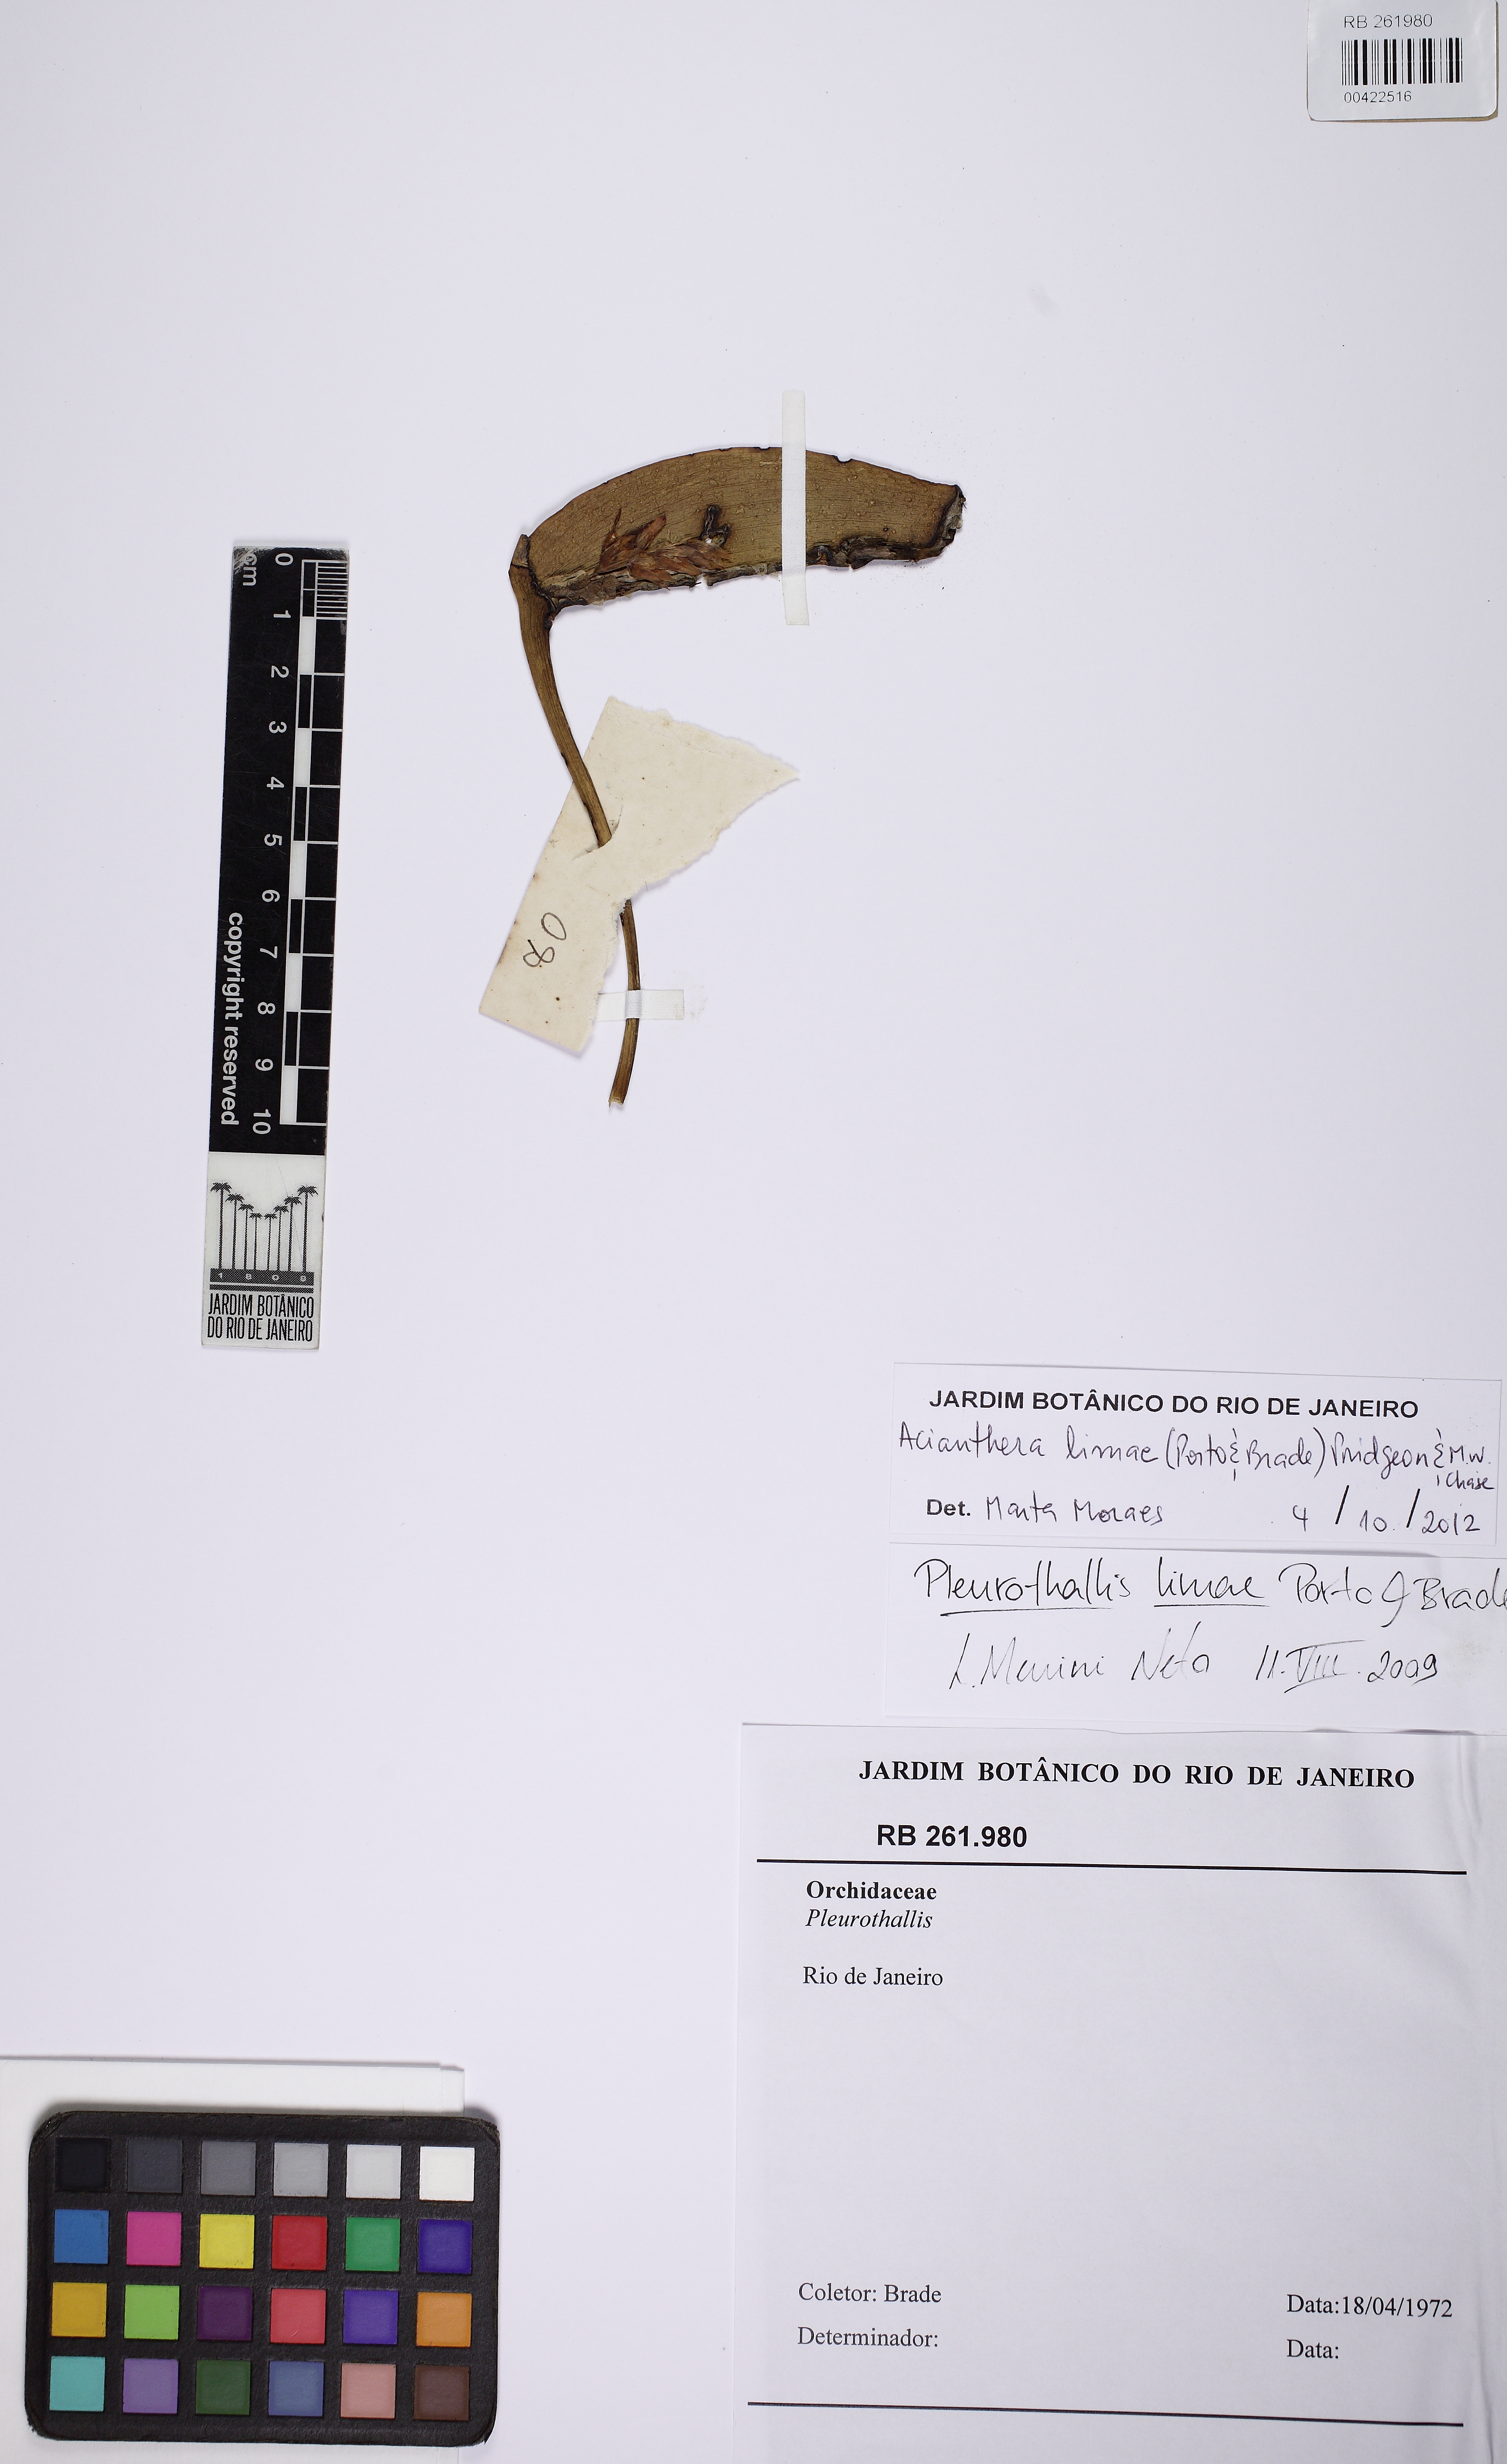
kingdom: Plantae
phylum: Tracheophyta
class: Liliopsida
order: Asparagales
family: Orchidaceae
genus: Acianthera
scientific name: Acianthera limae
